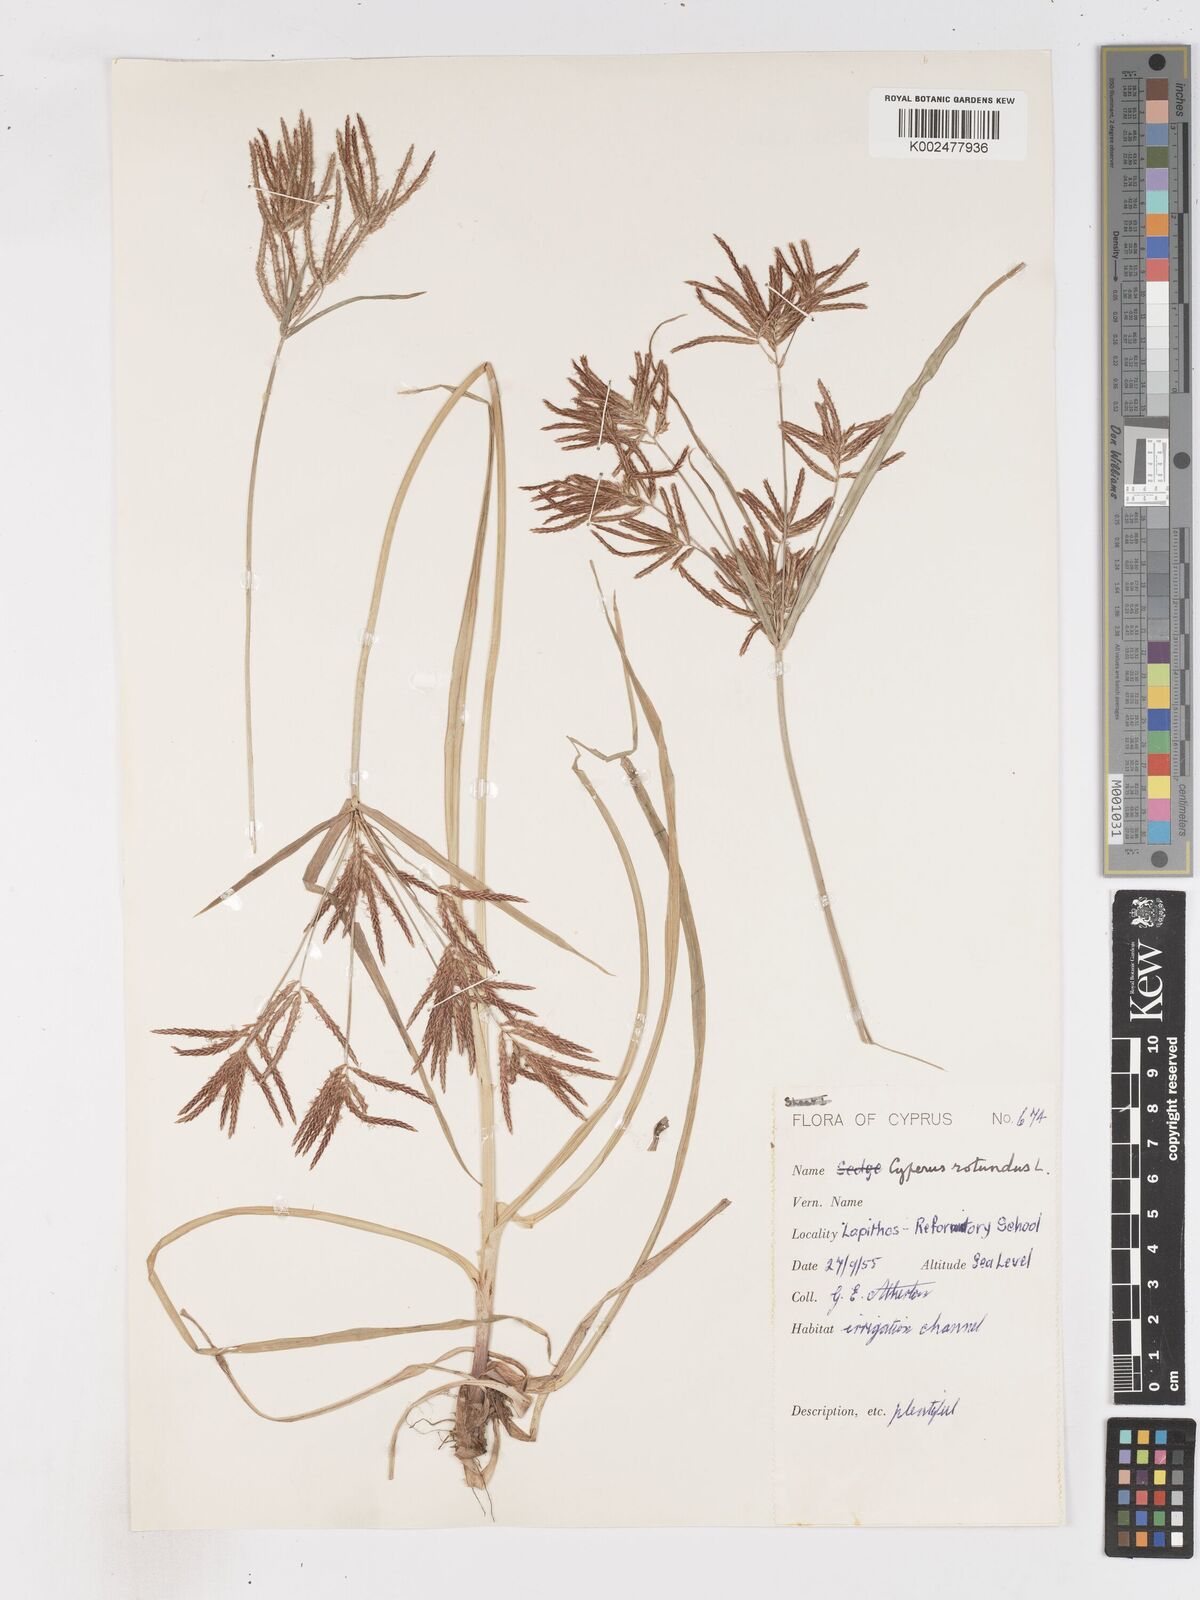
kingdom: Plantae
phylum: Tracheophyta
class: Liliopsida
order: Poales
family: Cyperaceae
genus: Cyperus
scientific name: Cyperus rotundus
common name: Nutgrass
